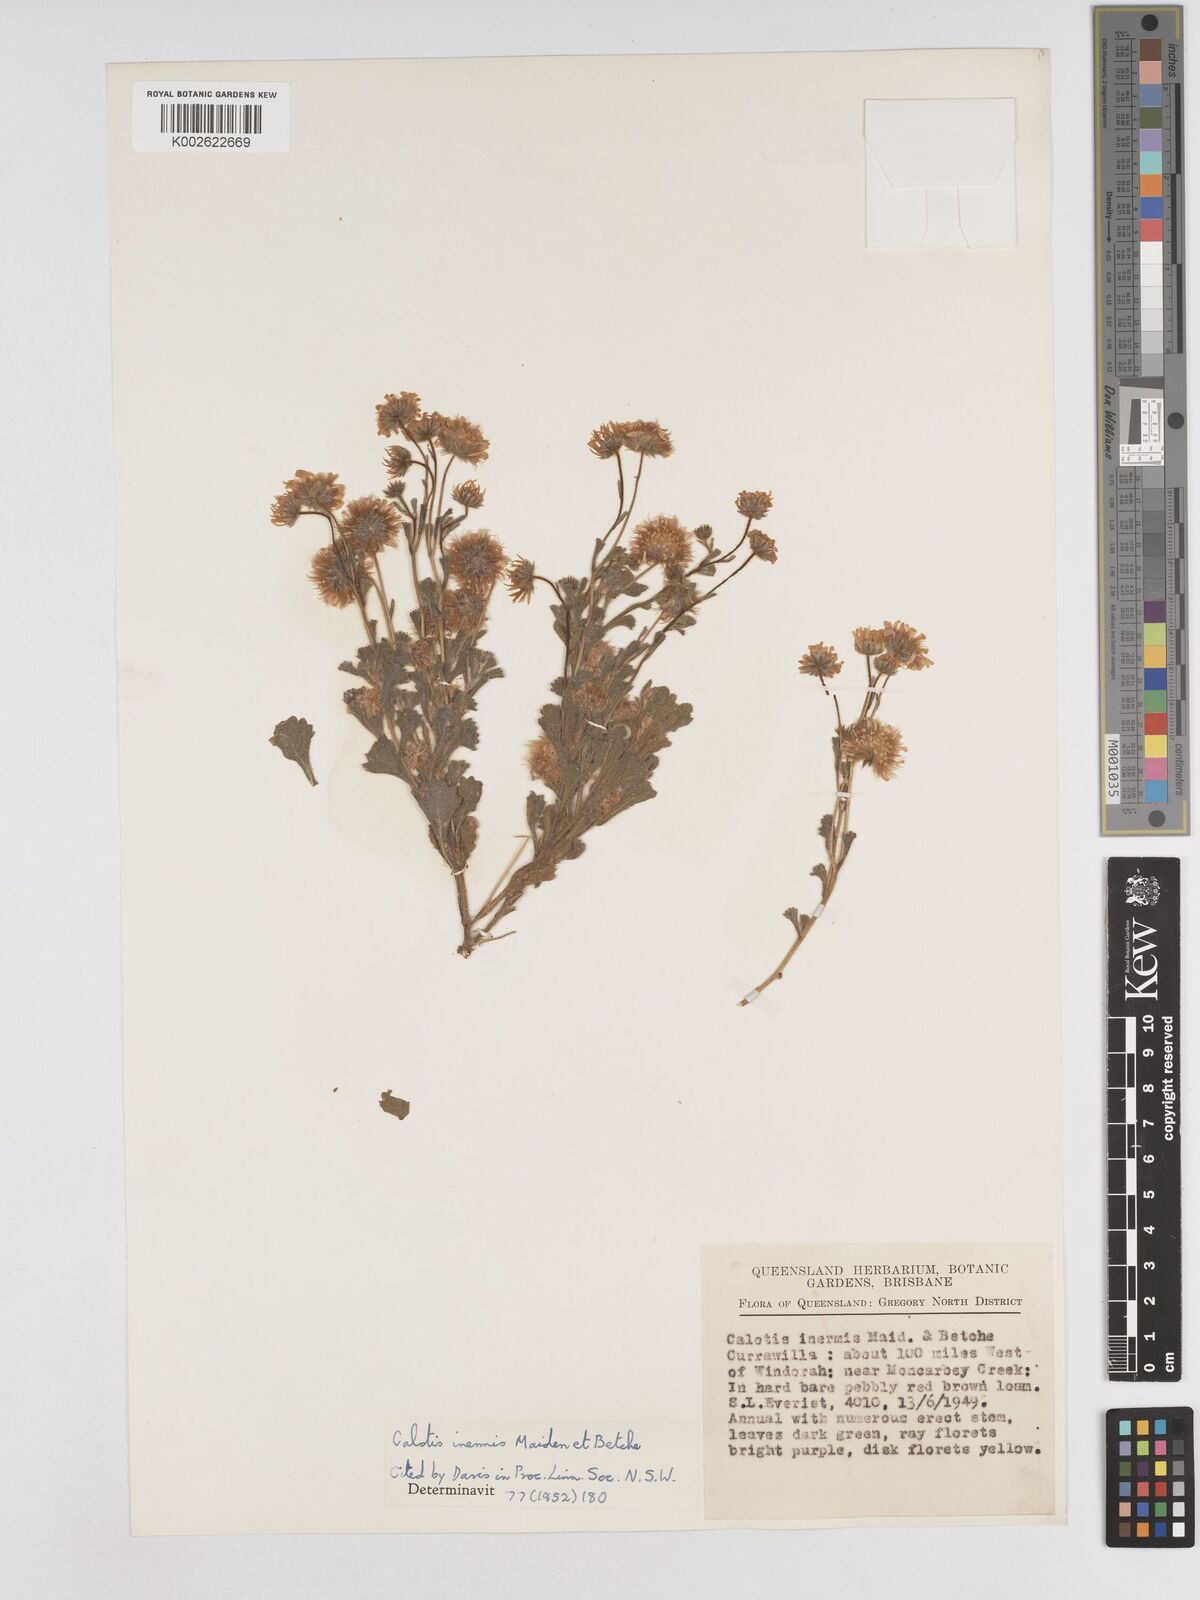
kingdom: Plantae
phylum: Tracheophyta
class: Magnoliopsida
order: Asterales
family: Asteraceae
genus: Calotis
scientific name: Calotis inermis
